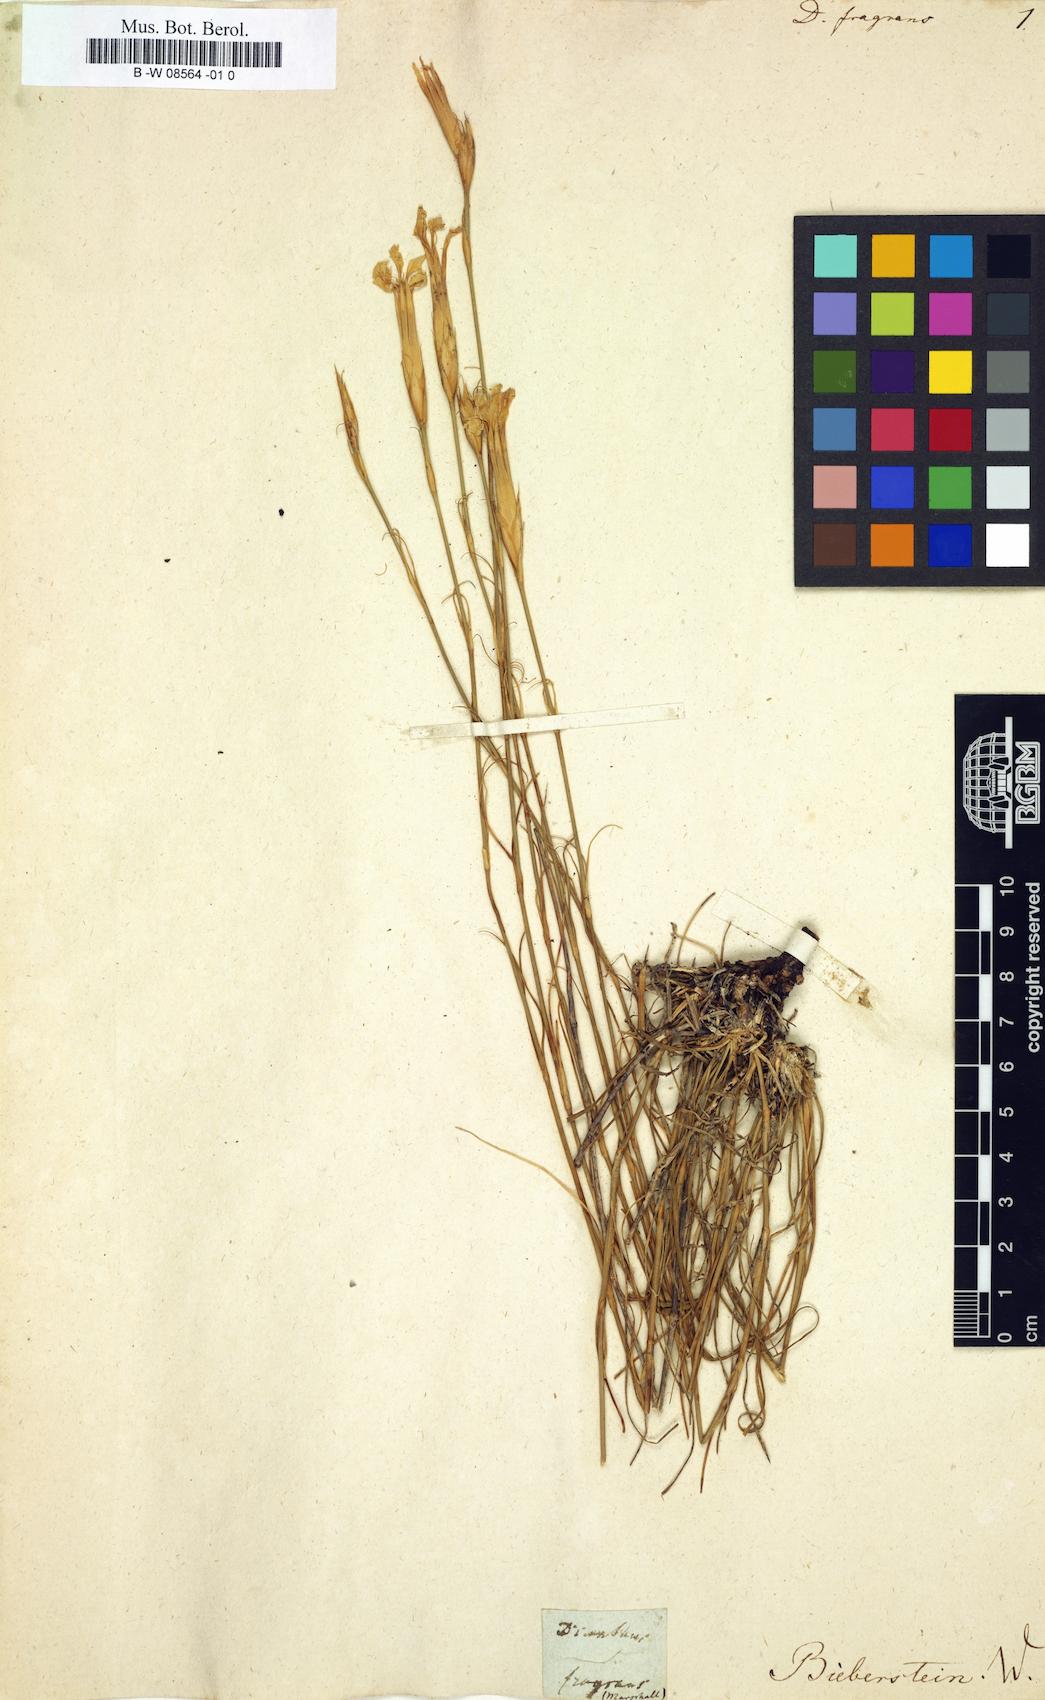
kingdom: Plantae
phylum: Tracheophyta
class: Magnoliopsida
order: Caryophyllales
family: Caryophyllaceae
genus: Dianthus
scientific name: Dianthus fragrans
